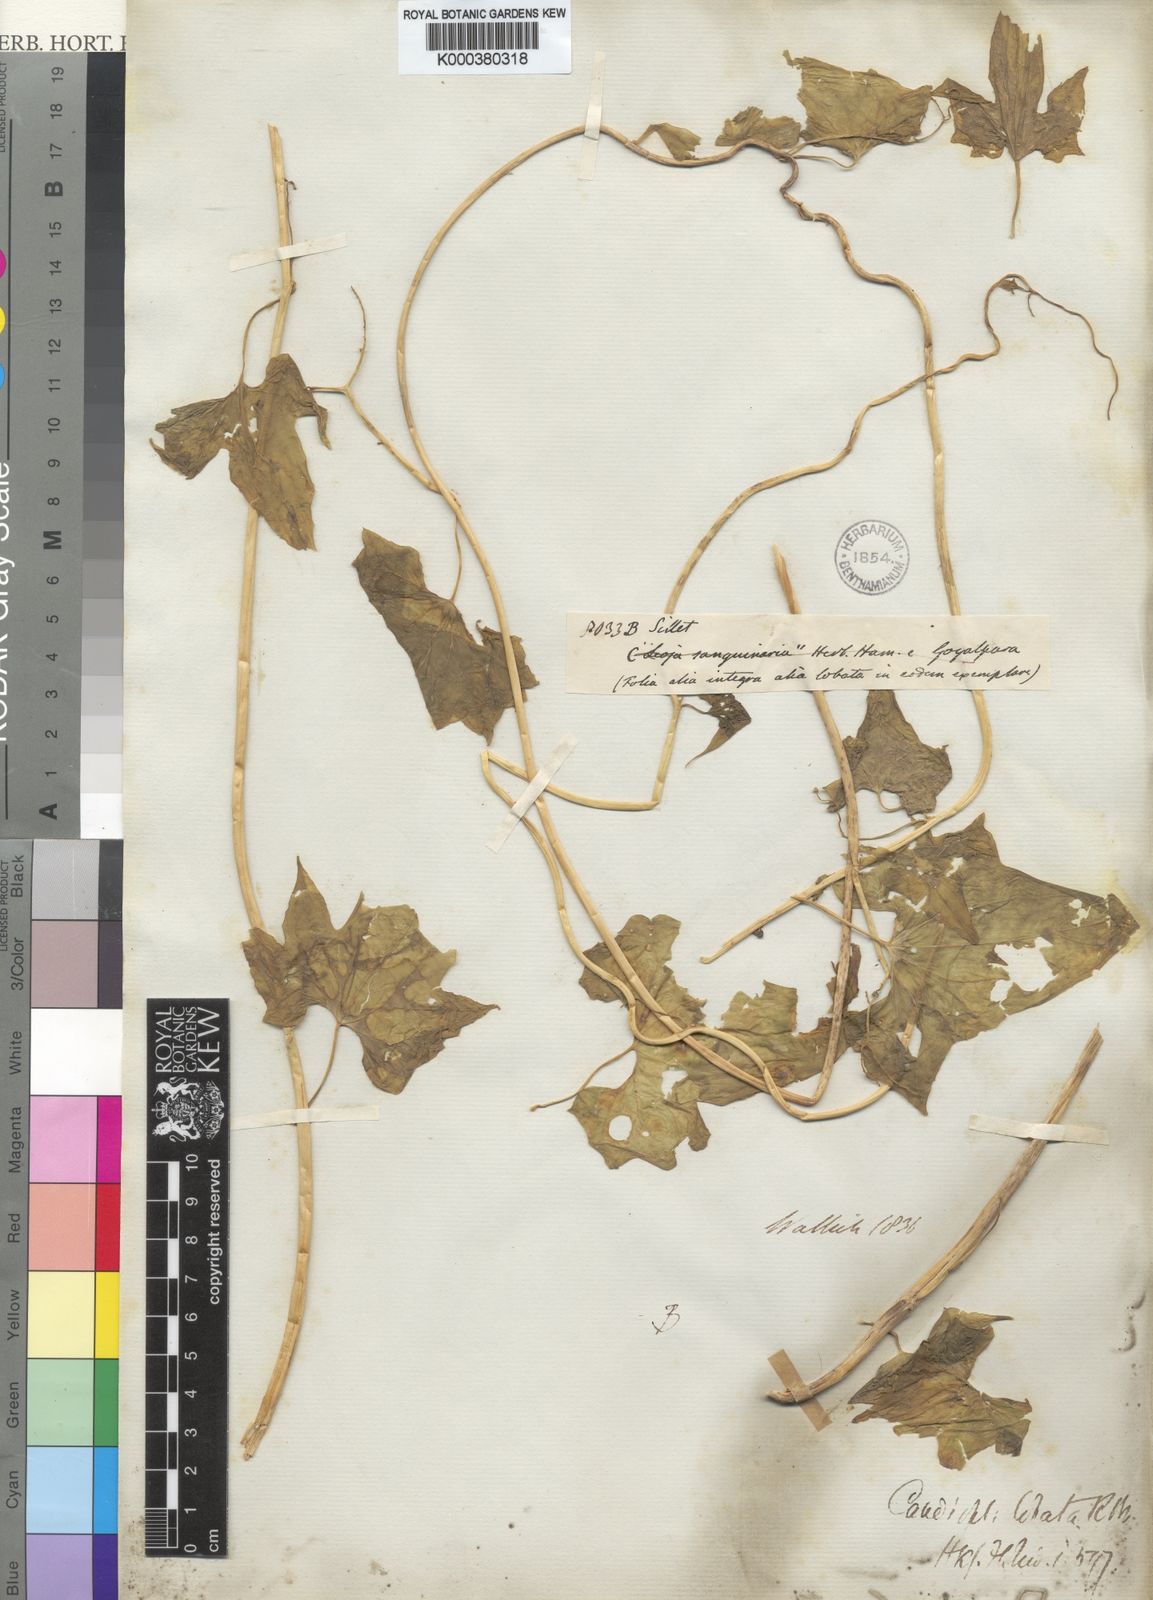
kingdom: Plantae
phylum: Tracheophyta
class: Magnoliopsida
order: Cardiopteridales
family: Cardiopteridaceae
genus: Cardiopteris
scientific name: Cardiopteris quinqueloba
